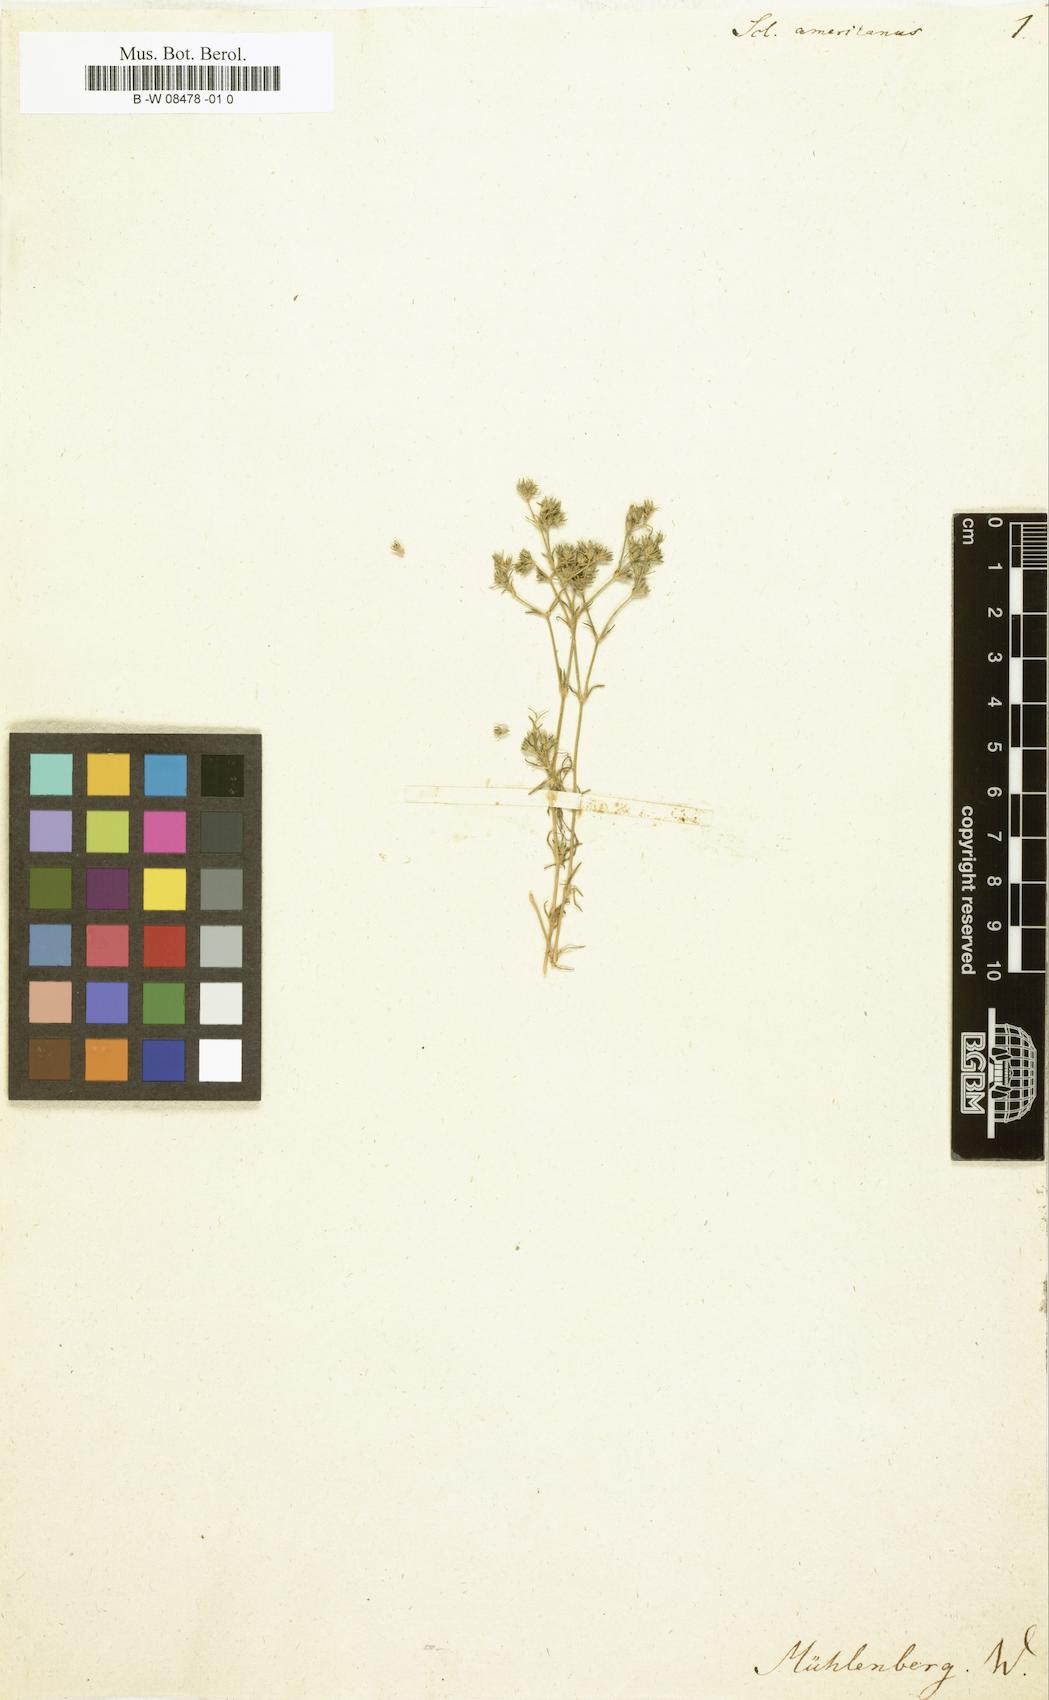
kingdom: Plantae
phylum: Tracheophyta
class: Magnoliopsida
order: Caryophyllales
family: Caryophyllaceae
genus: Scleranthus
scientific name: Scleranthus
